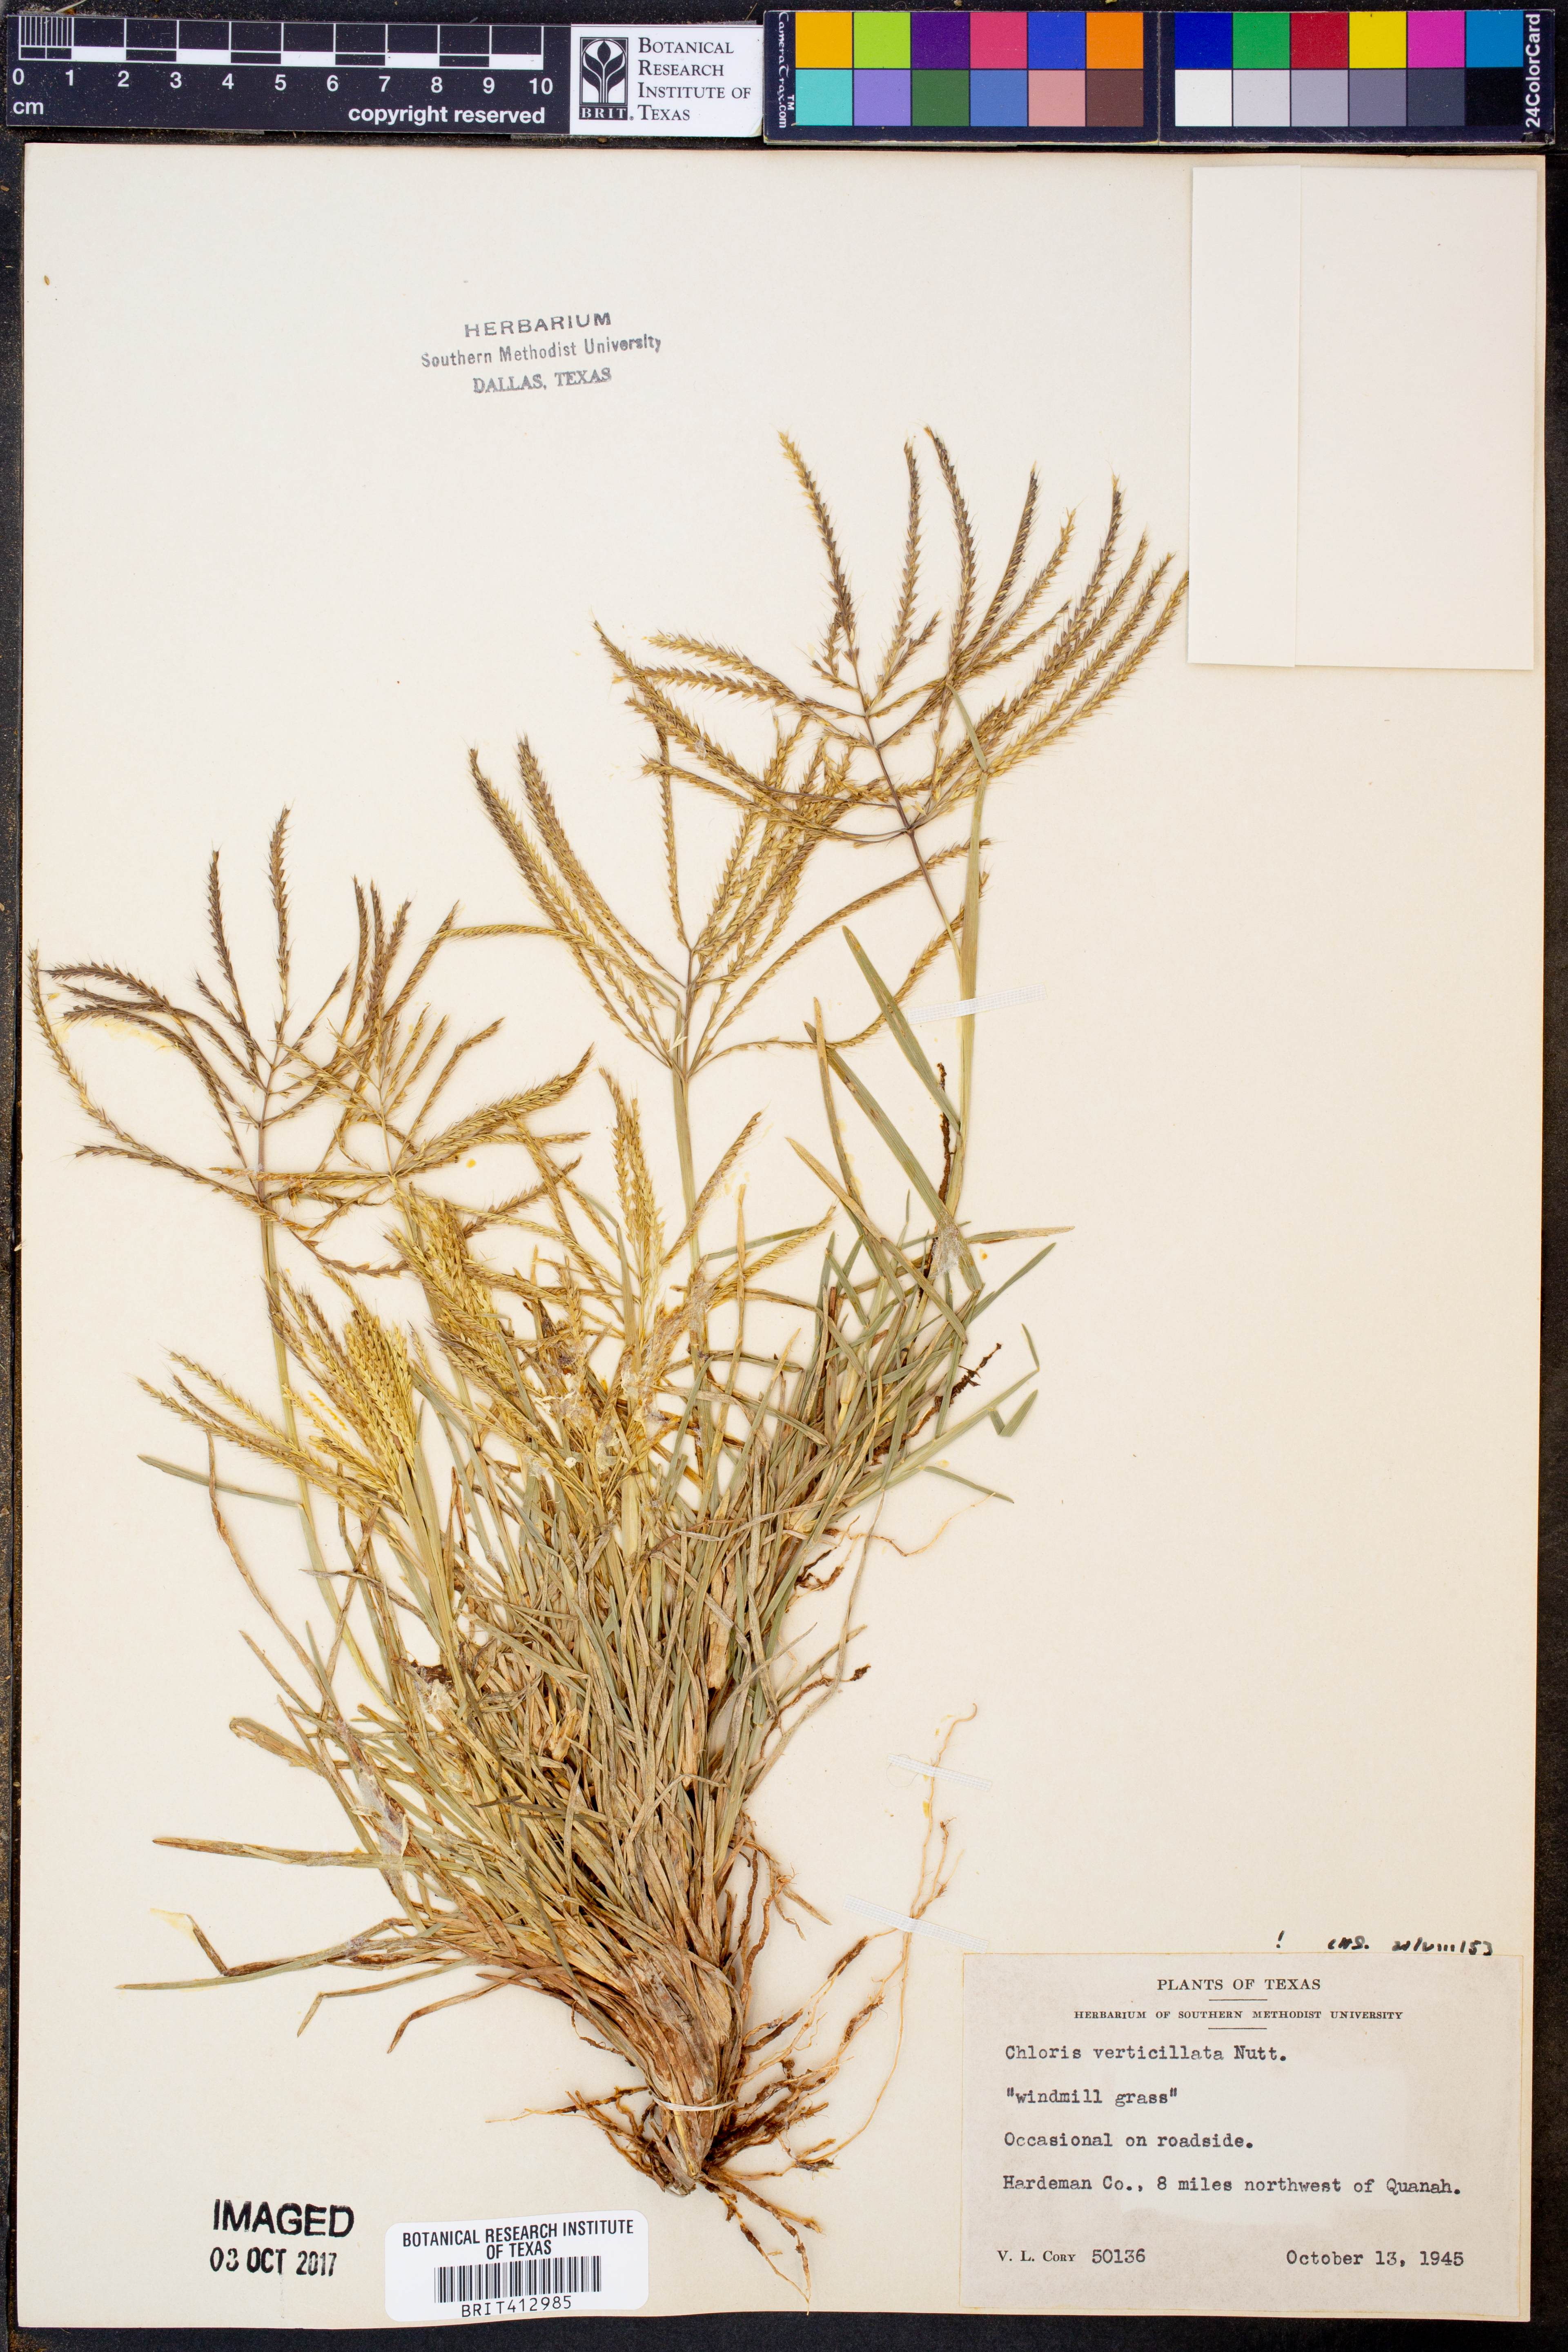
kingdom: Plantae
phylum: Tracheophyta
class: Liliopsida
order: Poales
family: Poaceae
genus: Chloris
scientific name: Chloris verticillata
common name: Tumble windmill grass
